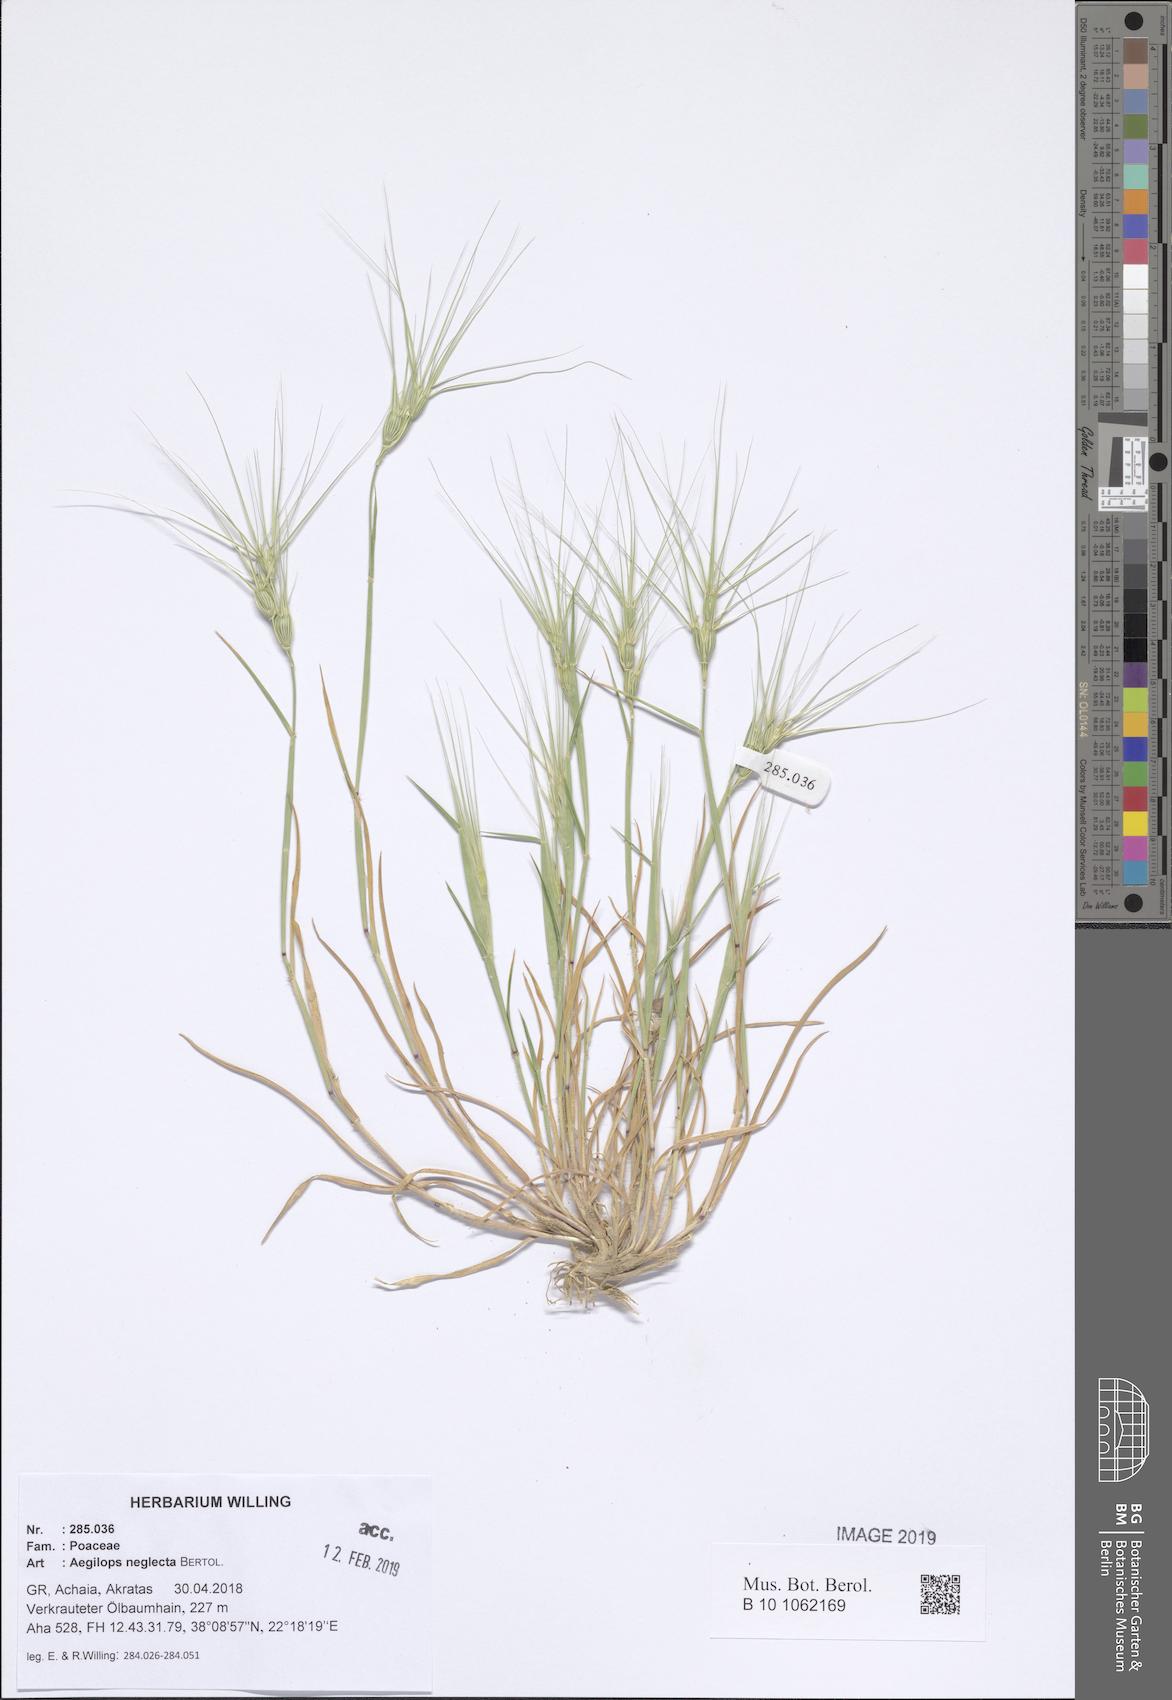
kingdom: Plantae
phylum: Tracheophyta
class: Liliopsida
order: Poales
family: Poaceae
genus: Aegilops
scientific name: Aegilops neglecta
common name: Three-awn goat grass
